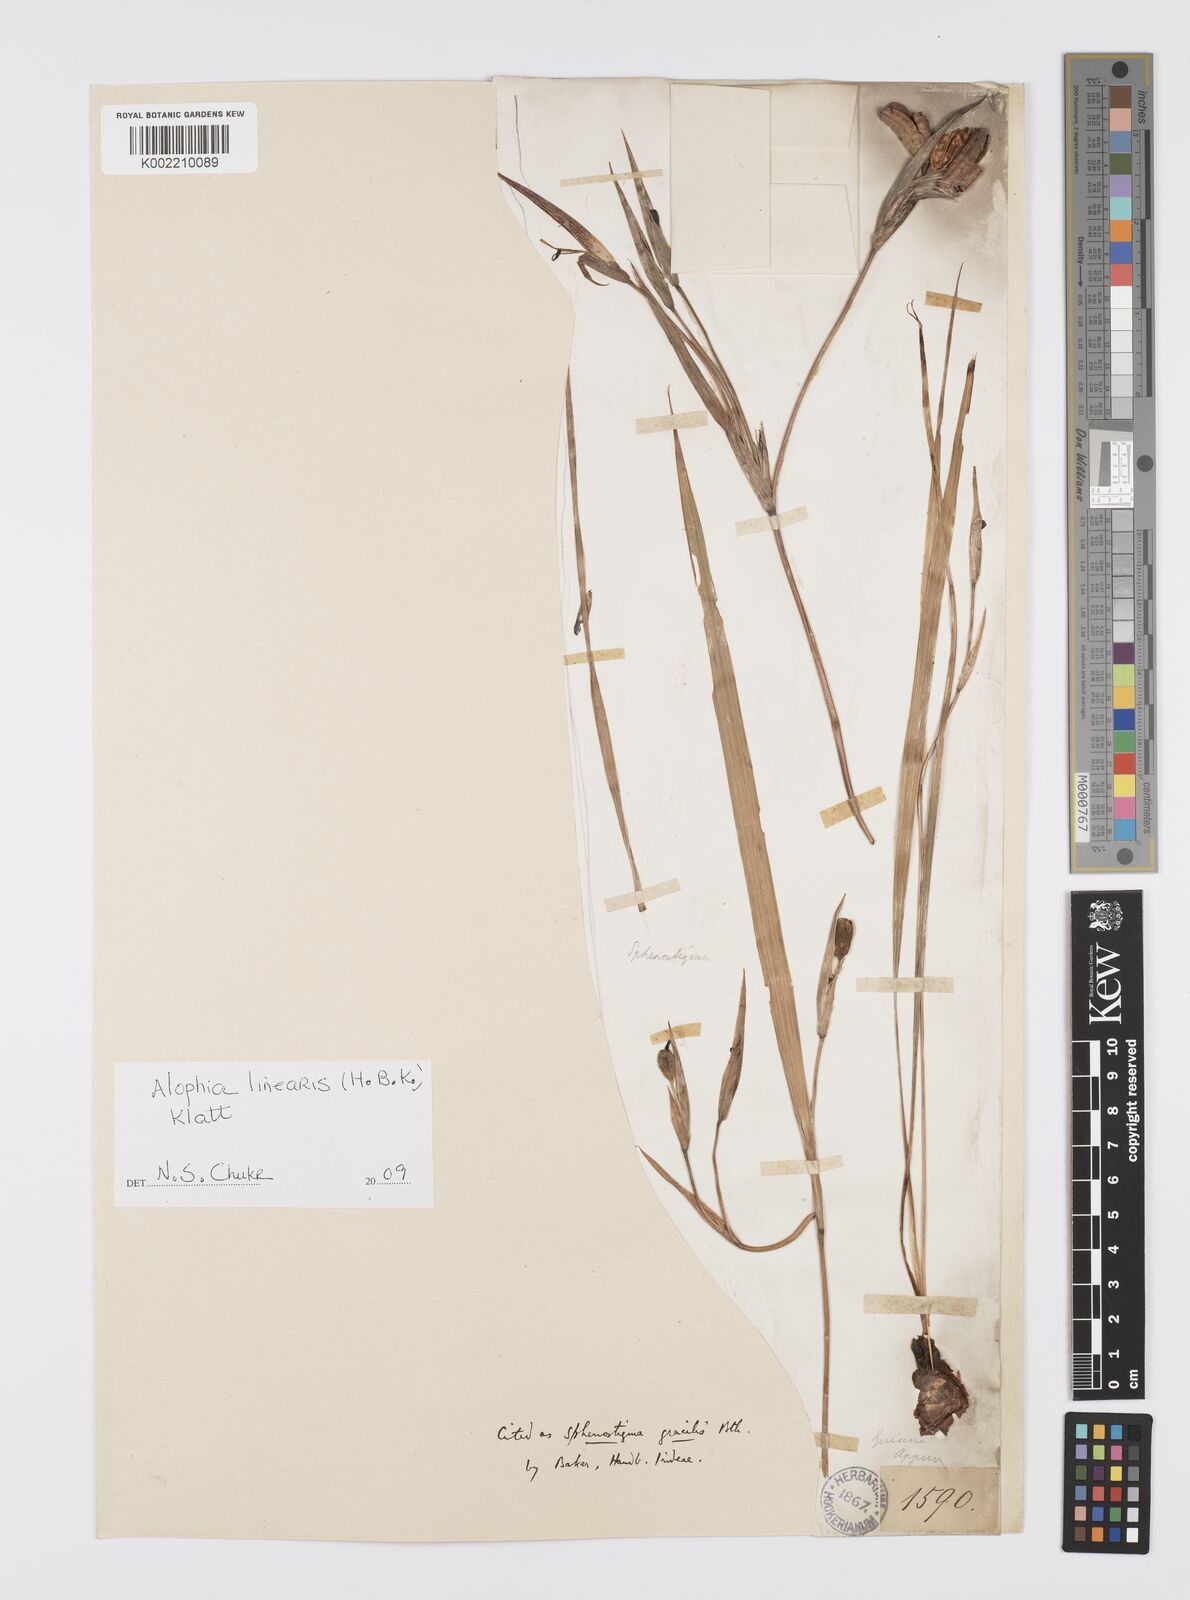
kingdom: Plantae
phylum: Tracheophyta
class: Liliopsida
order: Asparagales
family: Iridaceae
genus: Larentia
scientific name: Larentia linearis
